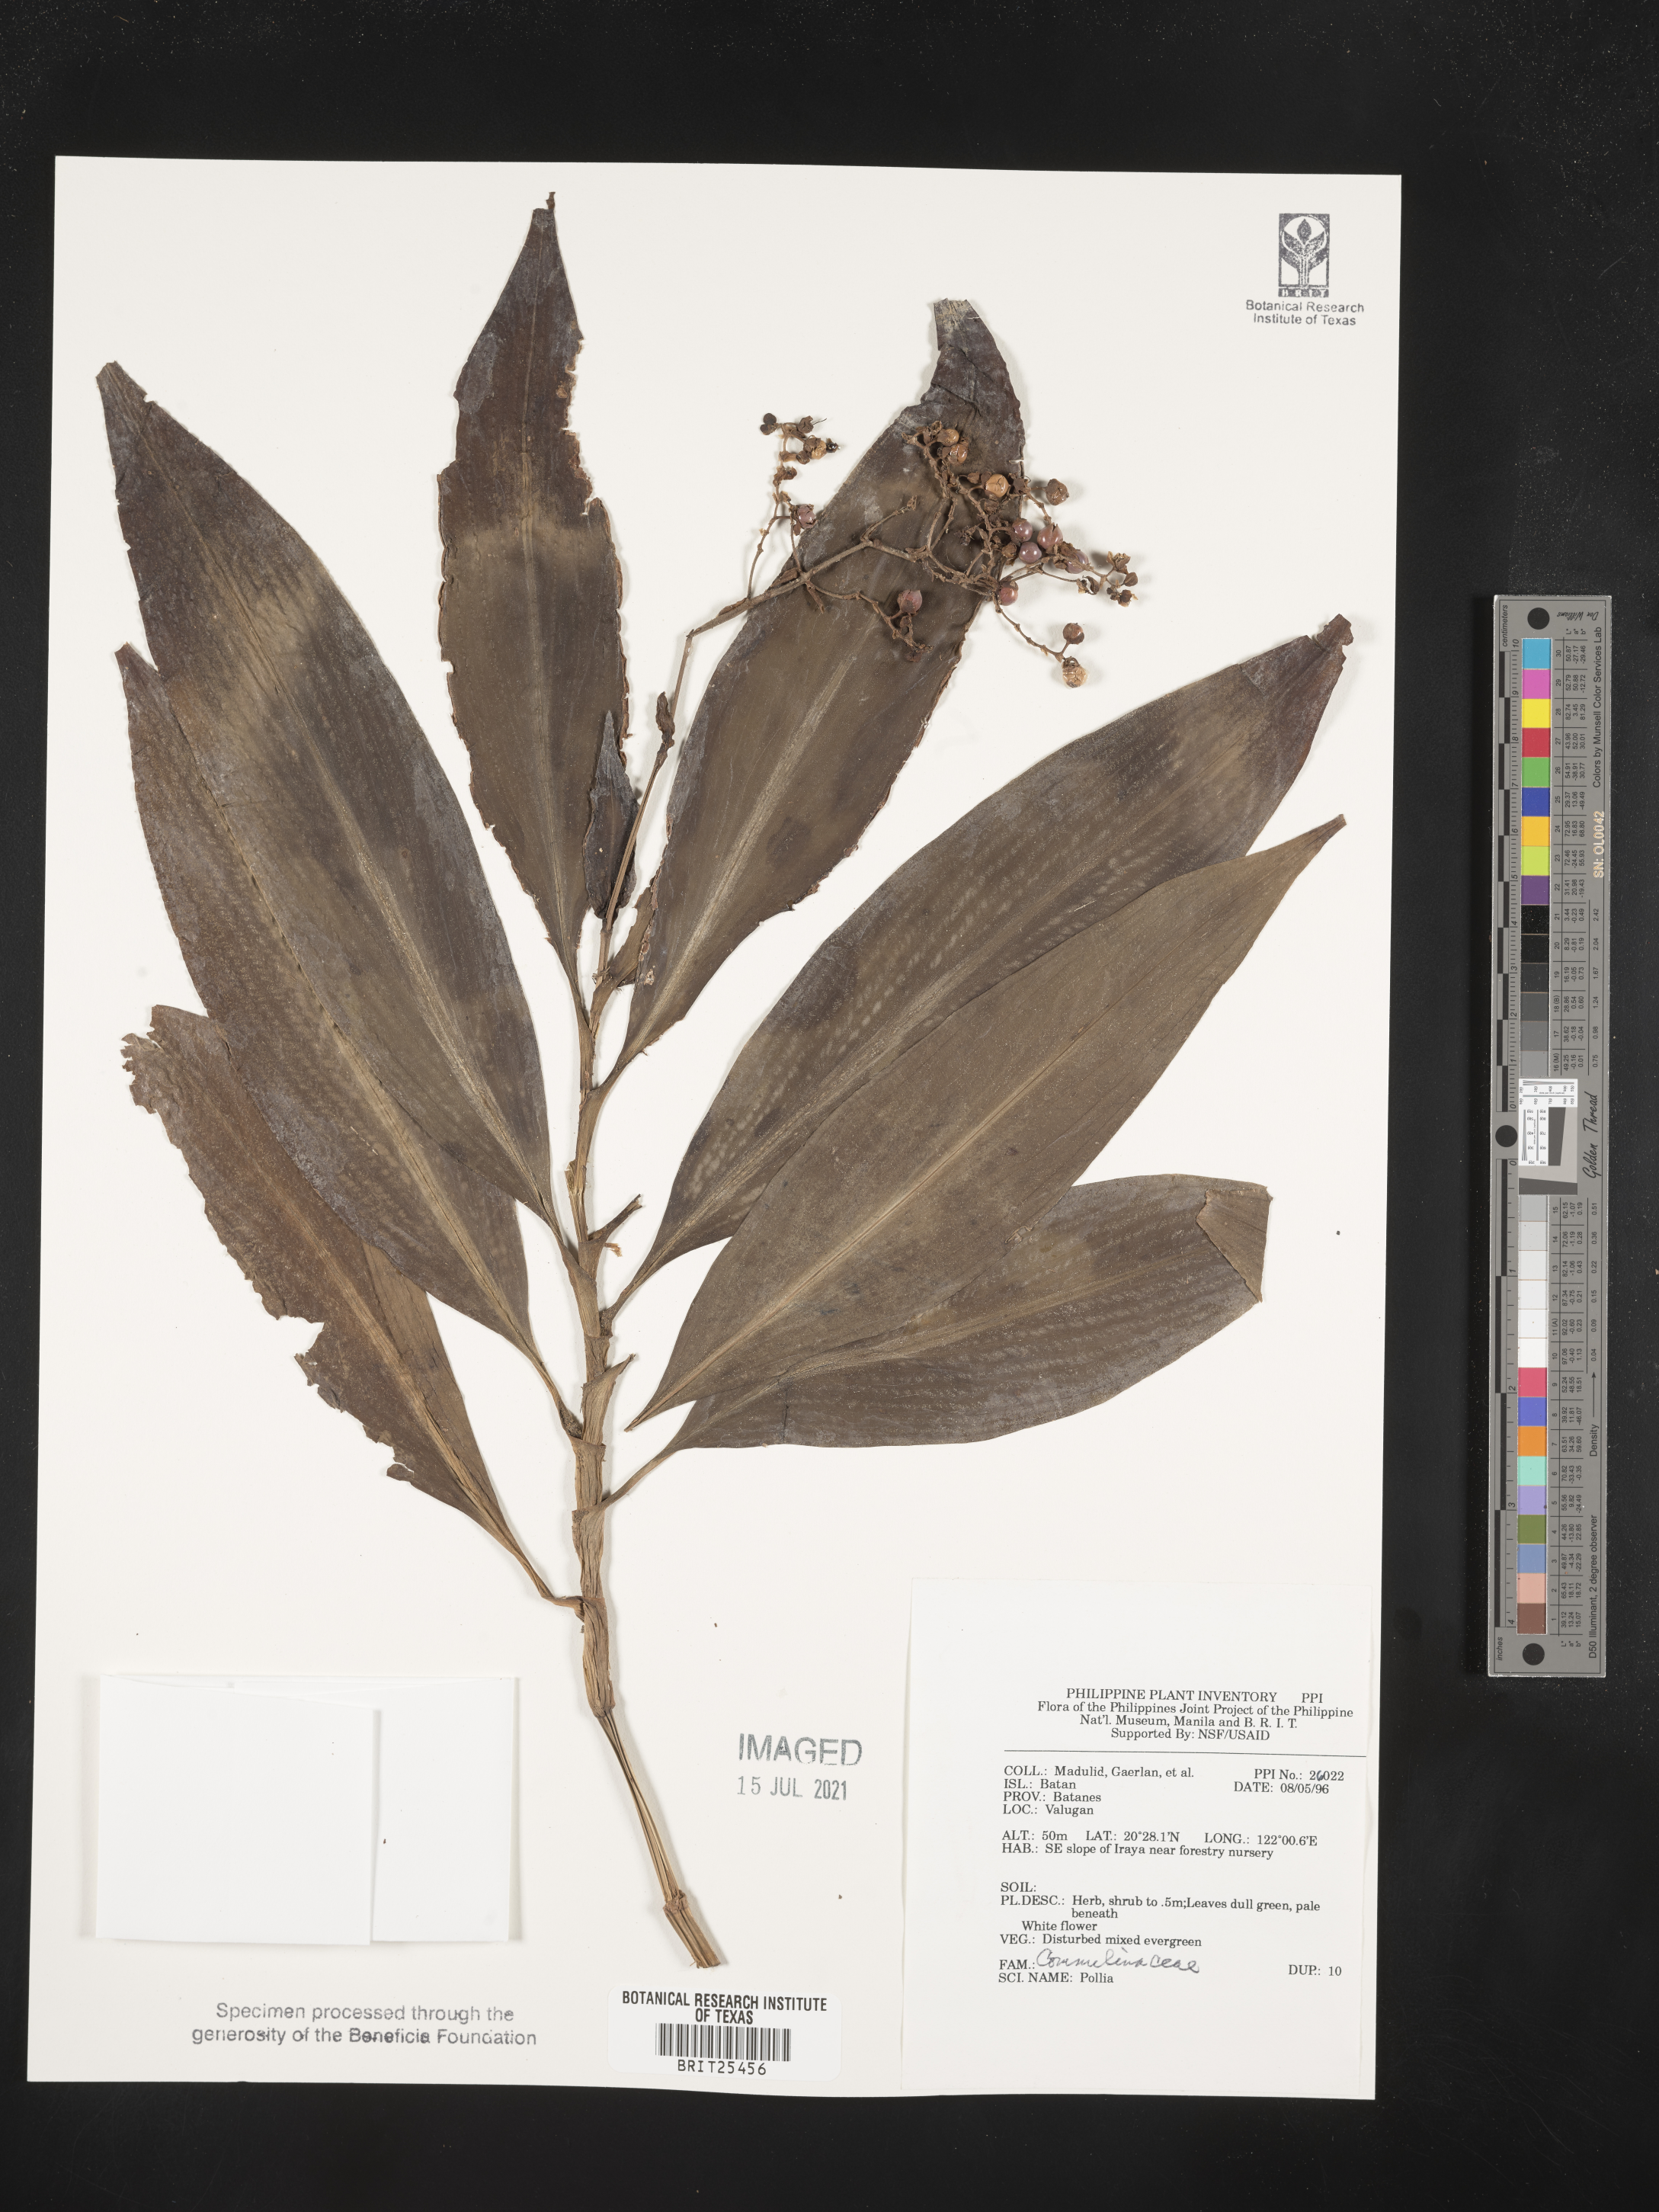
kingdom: Plantae
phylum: Tracheophyta
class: Liliopsida
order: Commelinales
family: Commelinaceae
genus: Pollia
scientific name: Pollia
